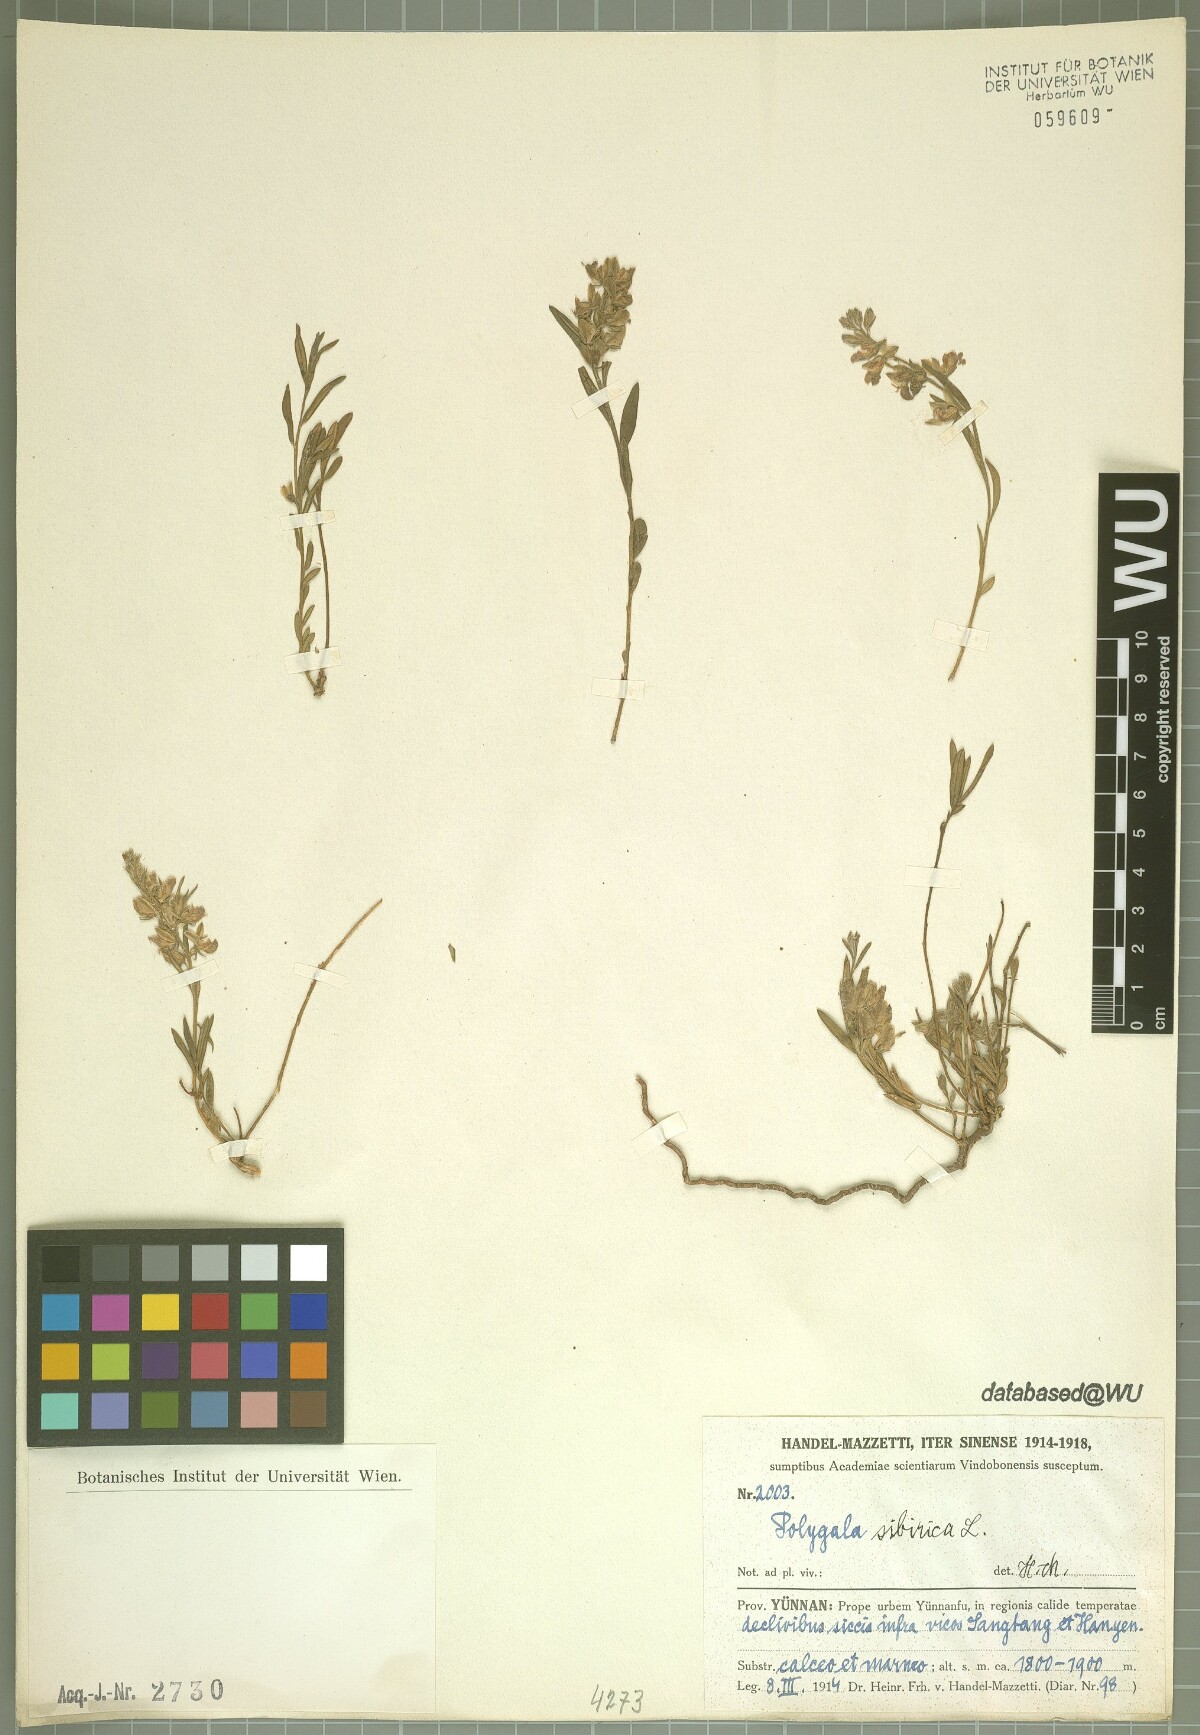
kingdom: Plantae
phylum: Tracheophyta
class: Magnoliopsida
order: Fabales
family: Polygalaceae
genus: Polygala
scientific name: Polygala sibirica
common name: Siberian polygala
